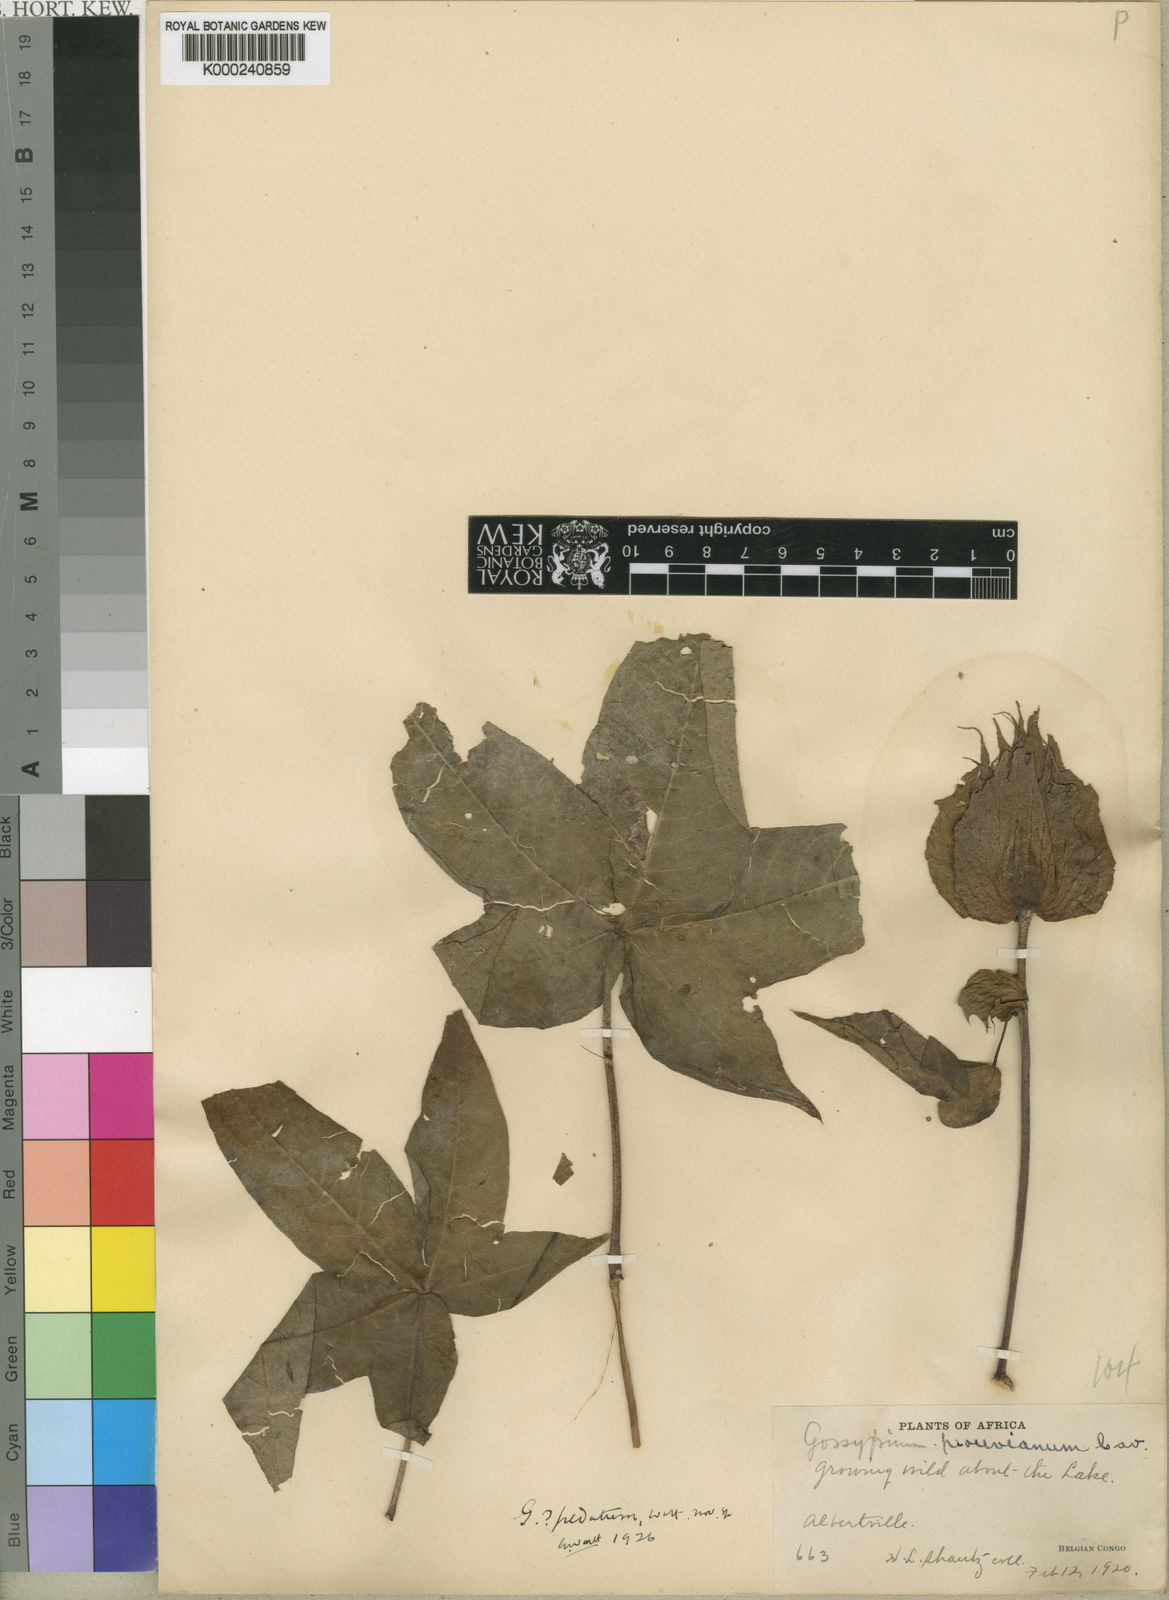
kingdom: Plantae
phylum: Tracheophyta
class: Magnoliopsida
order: Malvales
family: Malvaceae
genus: Gossypium
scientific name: Gossypium barbadense
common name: Creole cotton
